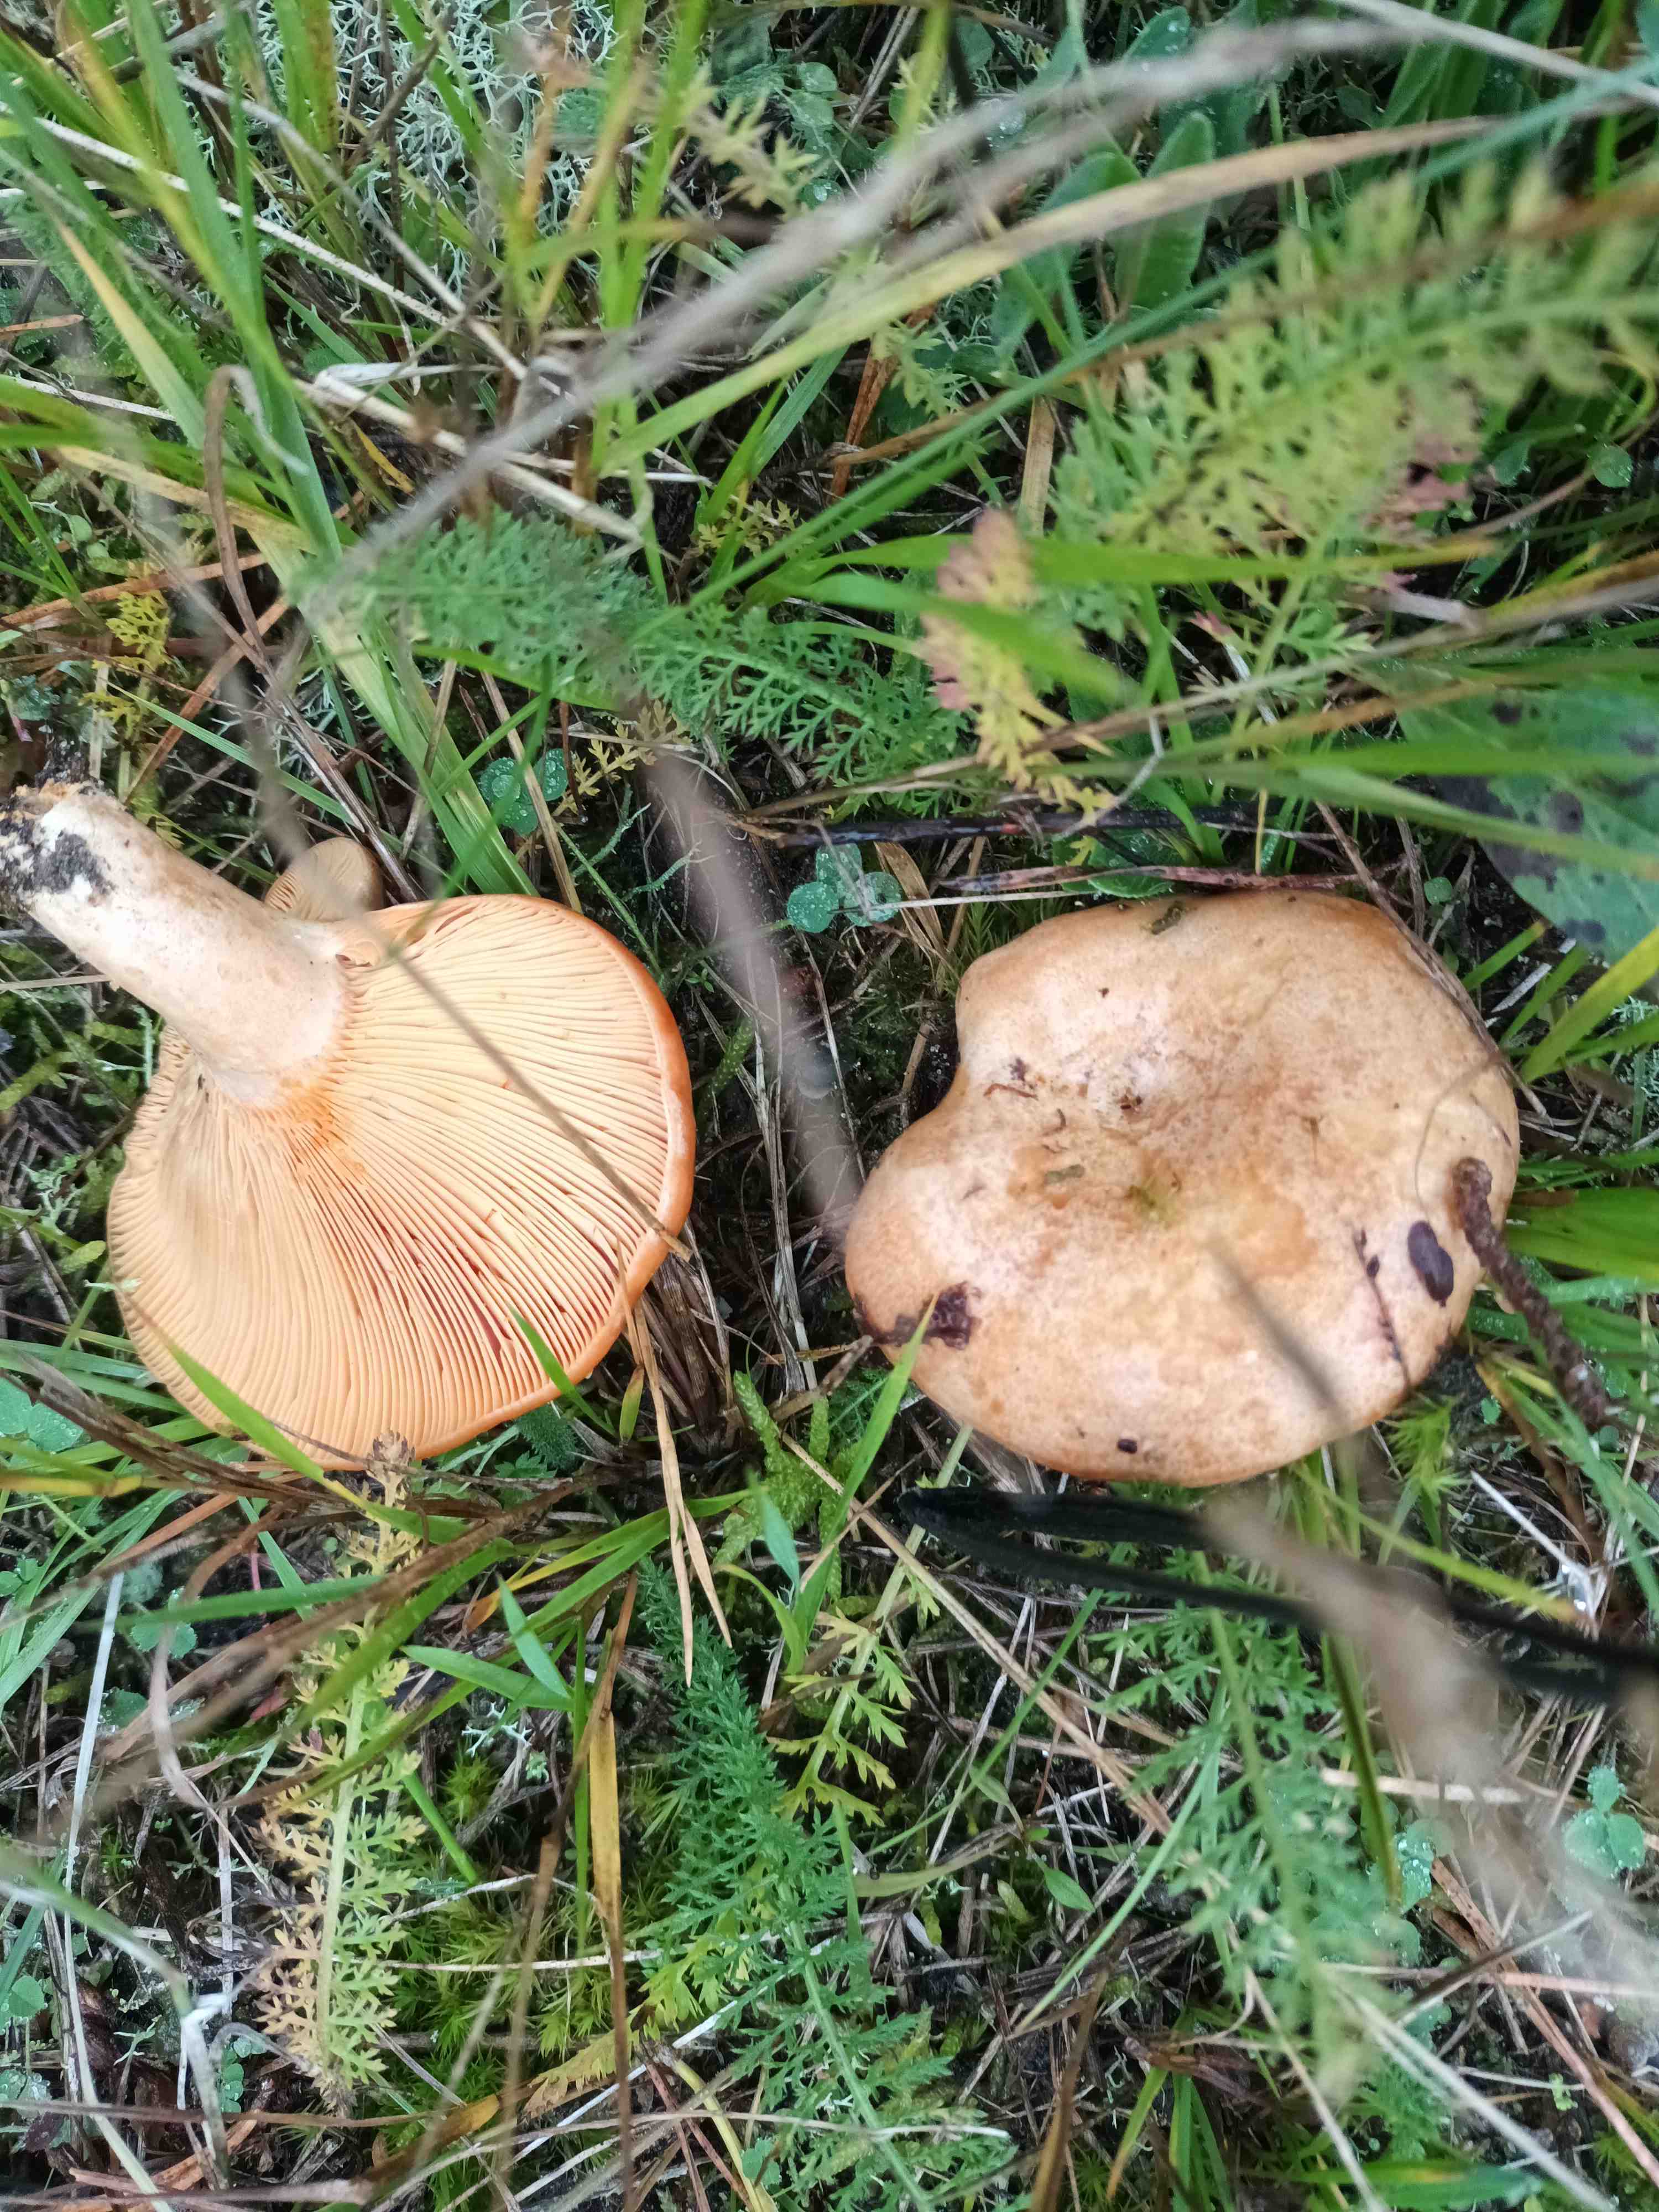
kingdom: Fungi
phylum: Basidiomycota
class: Agaricomycetes
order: Russulales
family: Russulaceae
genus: Lactarius
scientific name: Lactarius deliciosus
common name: velsmagende mælkehat
